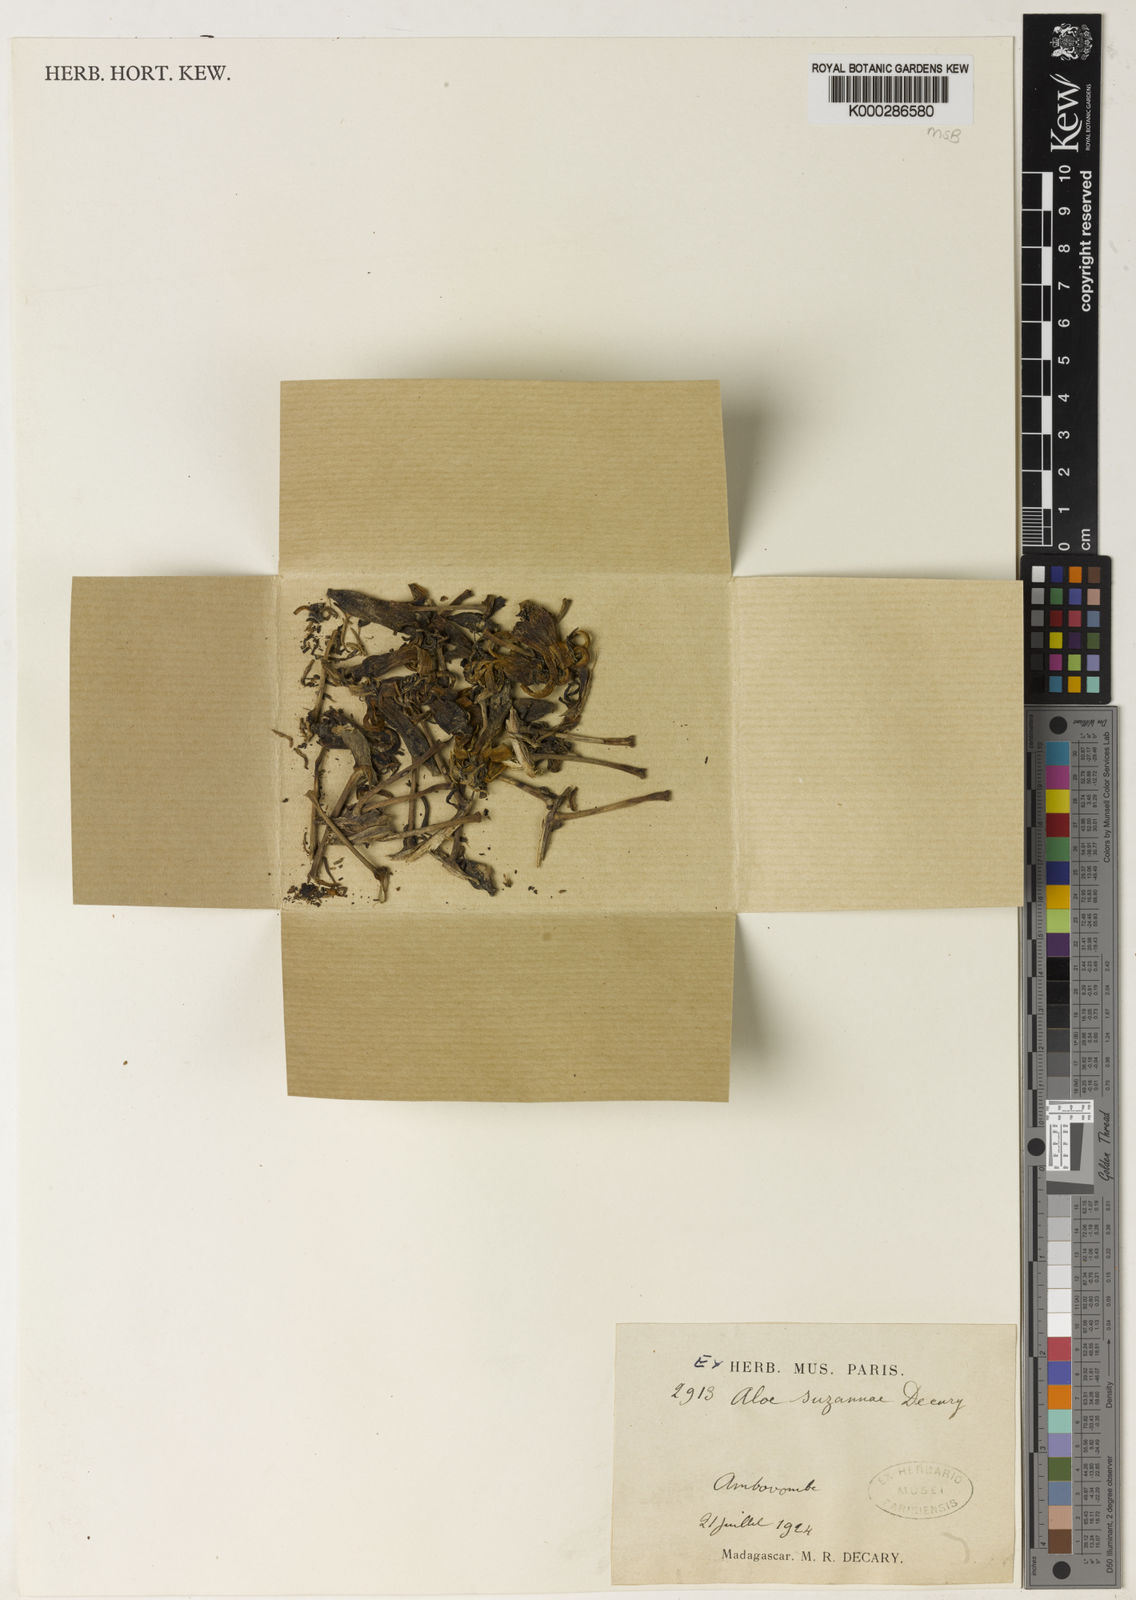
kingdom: Plantae
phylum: Tracheophyta
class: Liliopsida
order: Asparagales
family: Asphodelaceae
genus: Aloestrela
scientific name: Aloestrela suzannae
